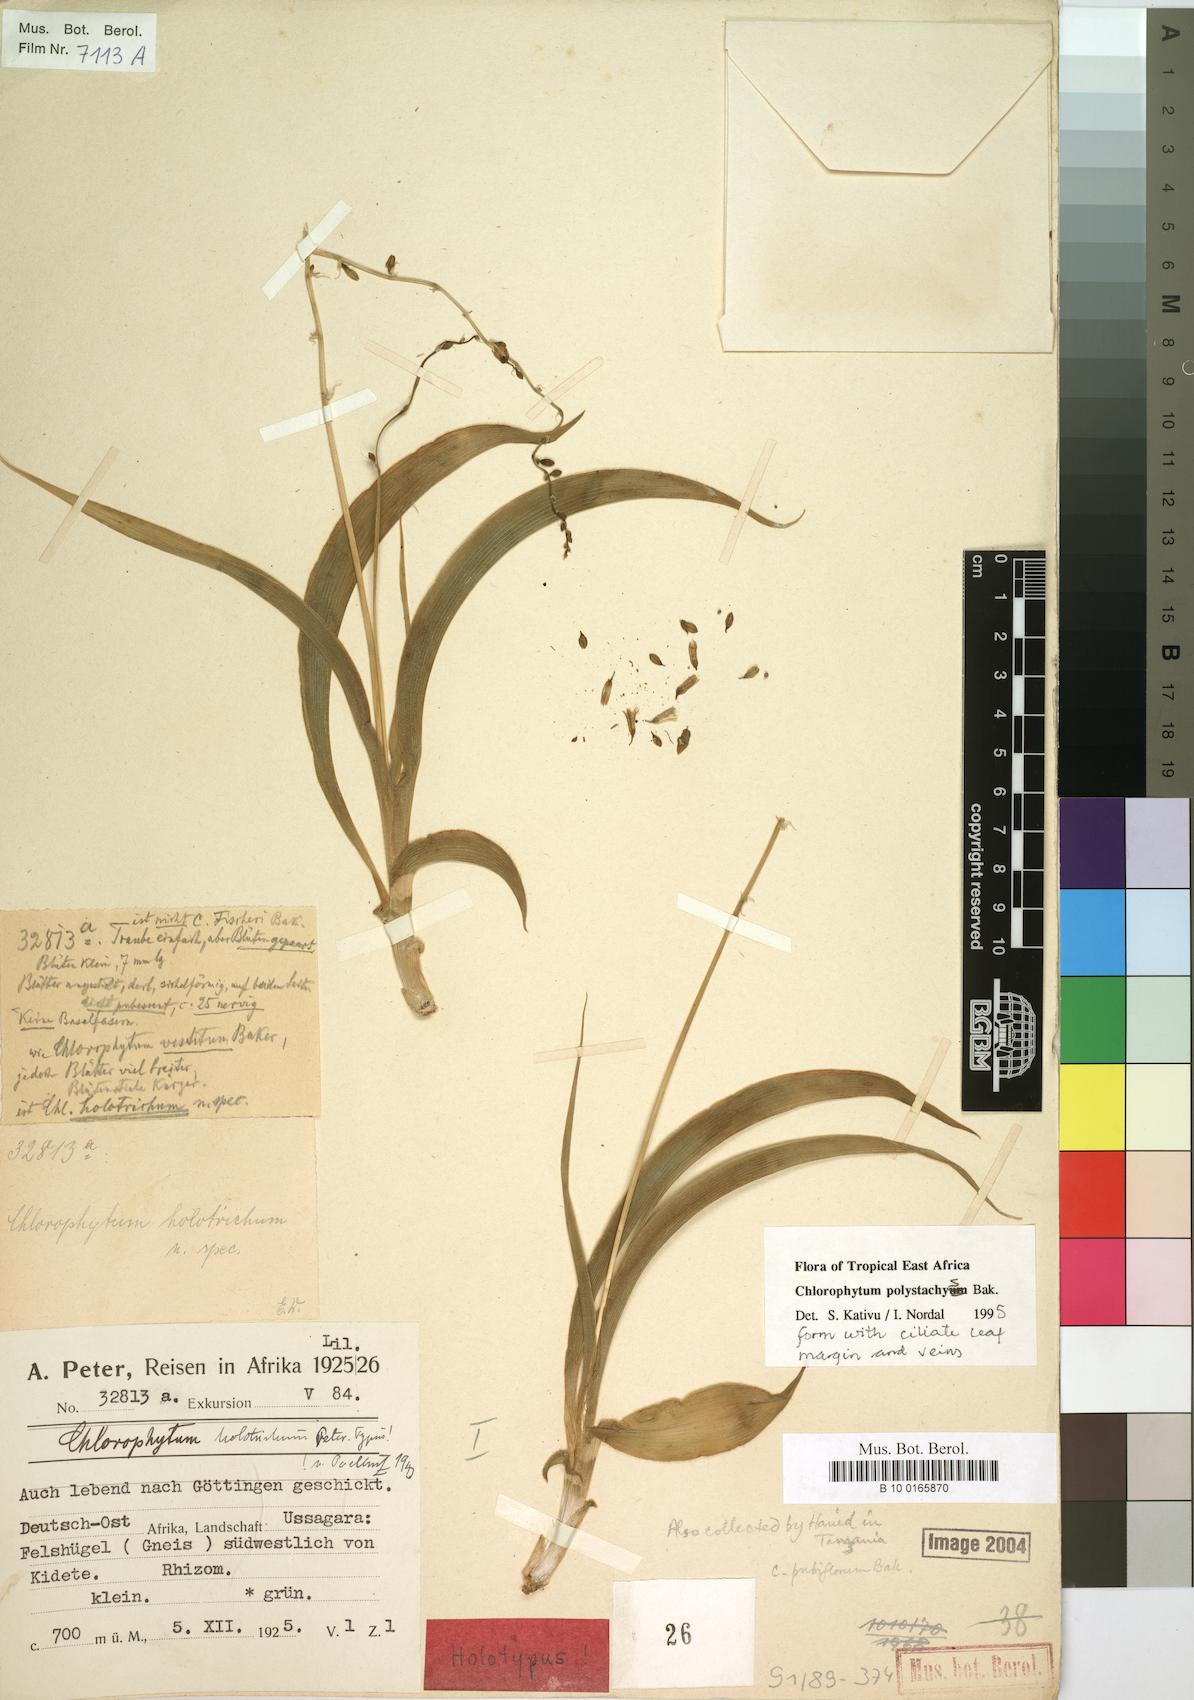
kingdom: Plantae
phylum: Tracheophyta
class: Liliopsida
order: Asparagales
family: Asparagaceae
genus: Chlorophytum
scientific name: Chlorophytum polystachys
